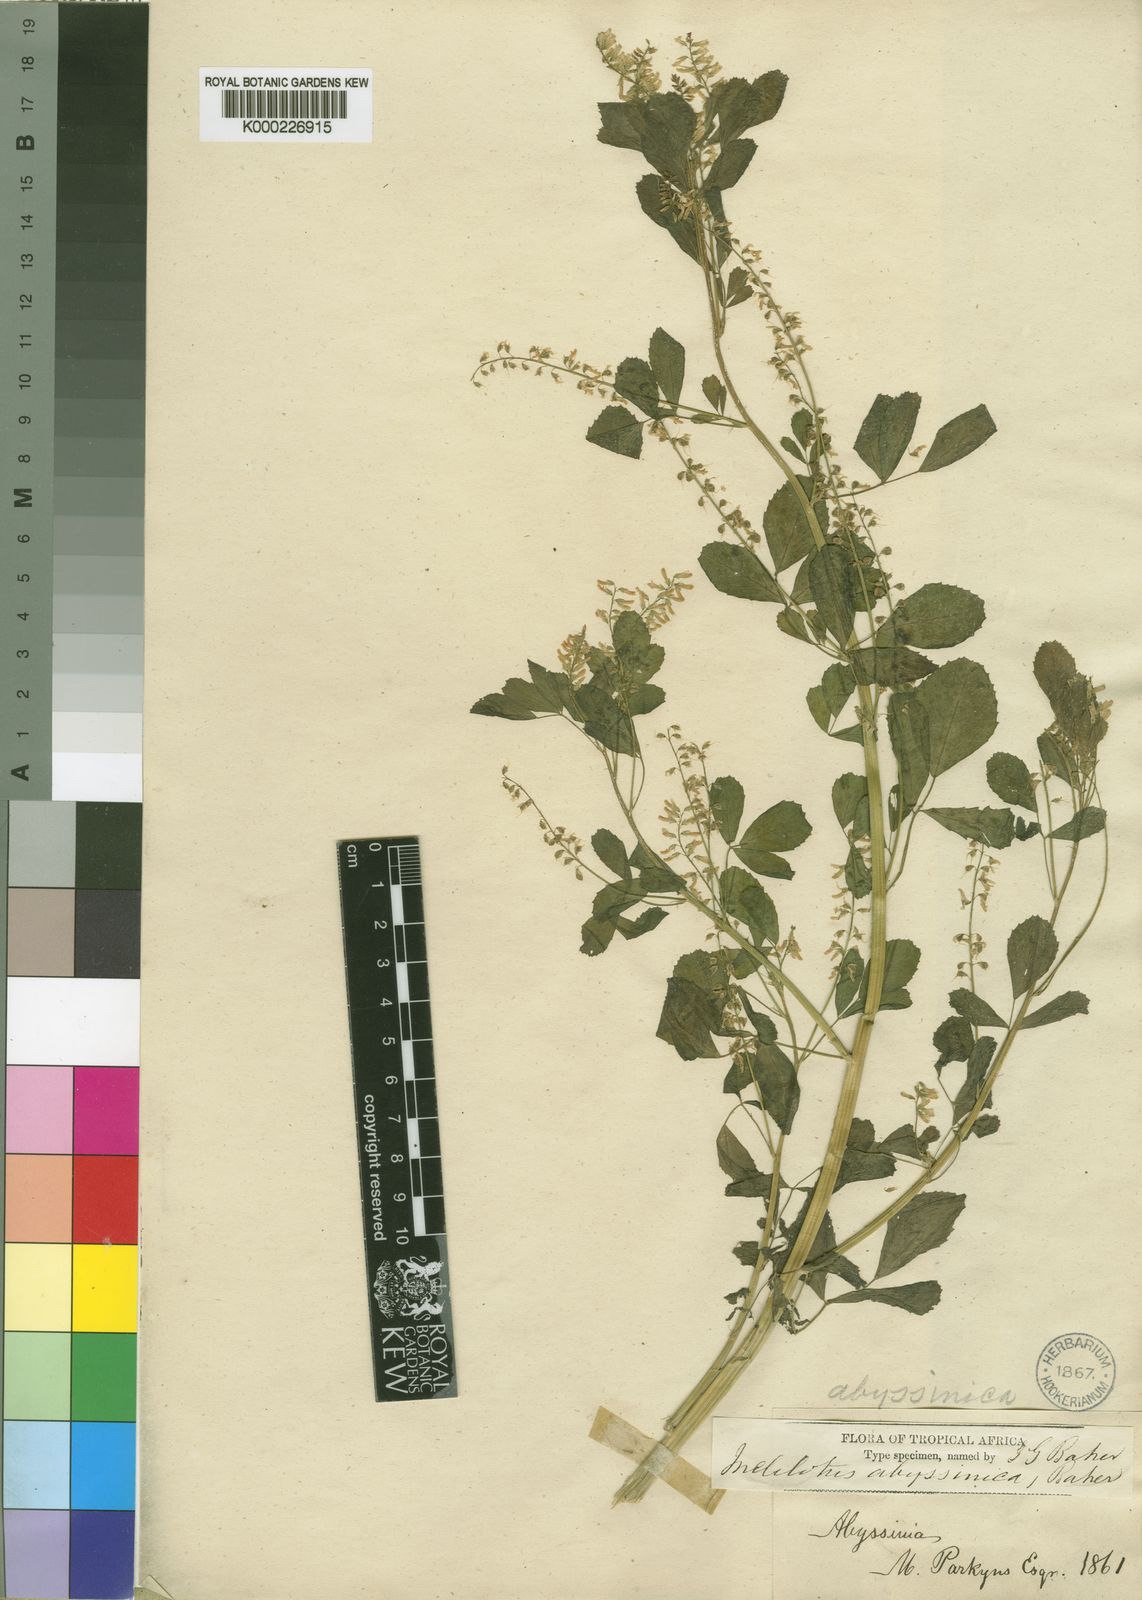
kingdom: Plantae
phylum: Tracheophyta
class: Magnoliopsida
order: Fabales
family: Fabaceae
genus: Melilotus
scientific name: Melilotus
